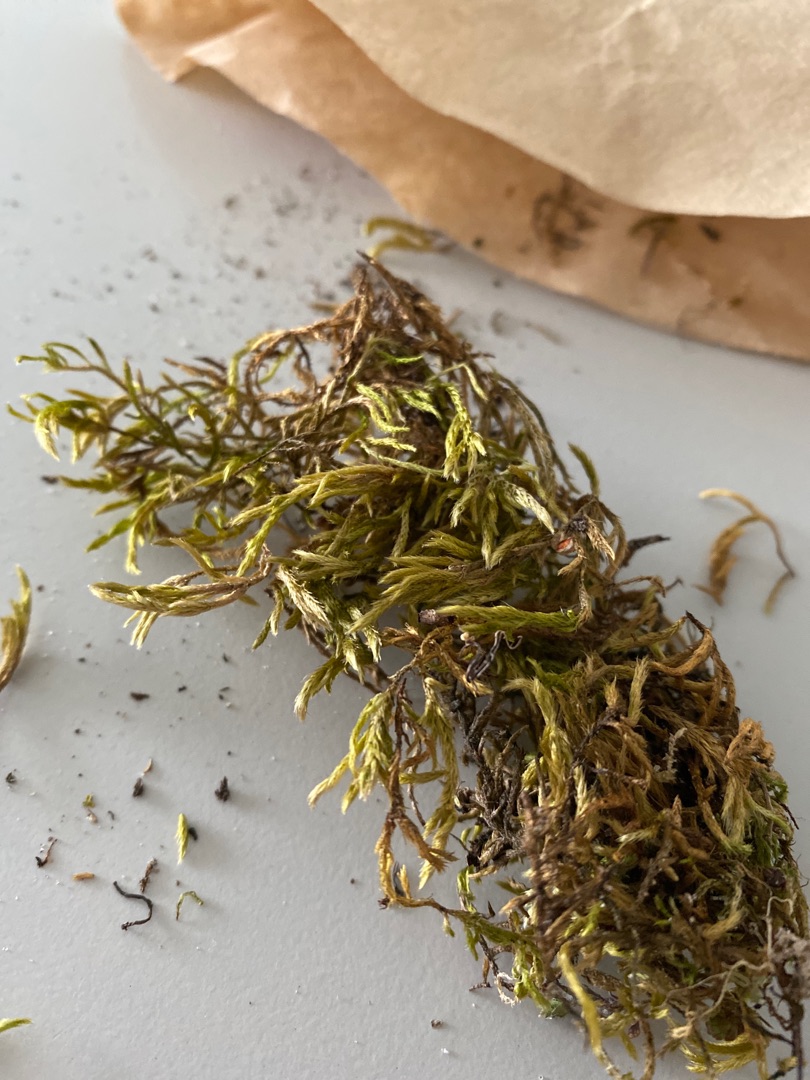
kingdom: Fungi
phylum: Ascomycota
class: Lecanoromycetes
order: Teloschistales
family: Teloschistaceae
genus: Xanthoria
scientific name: Xanthoria parietina
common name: Almindelig væggelav
